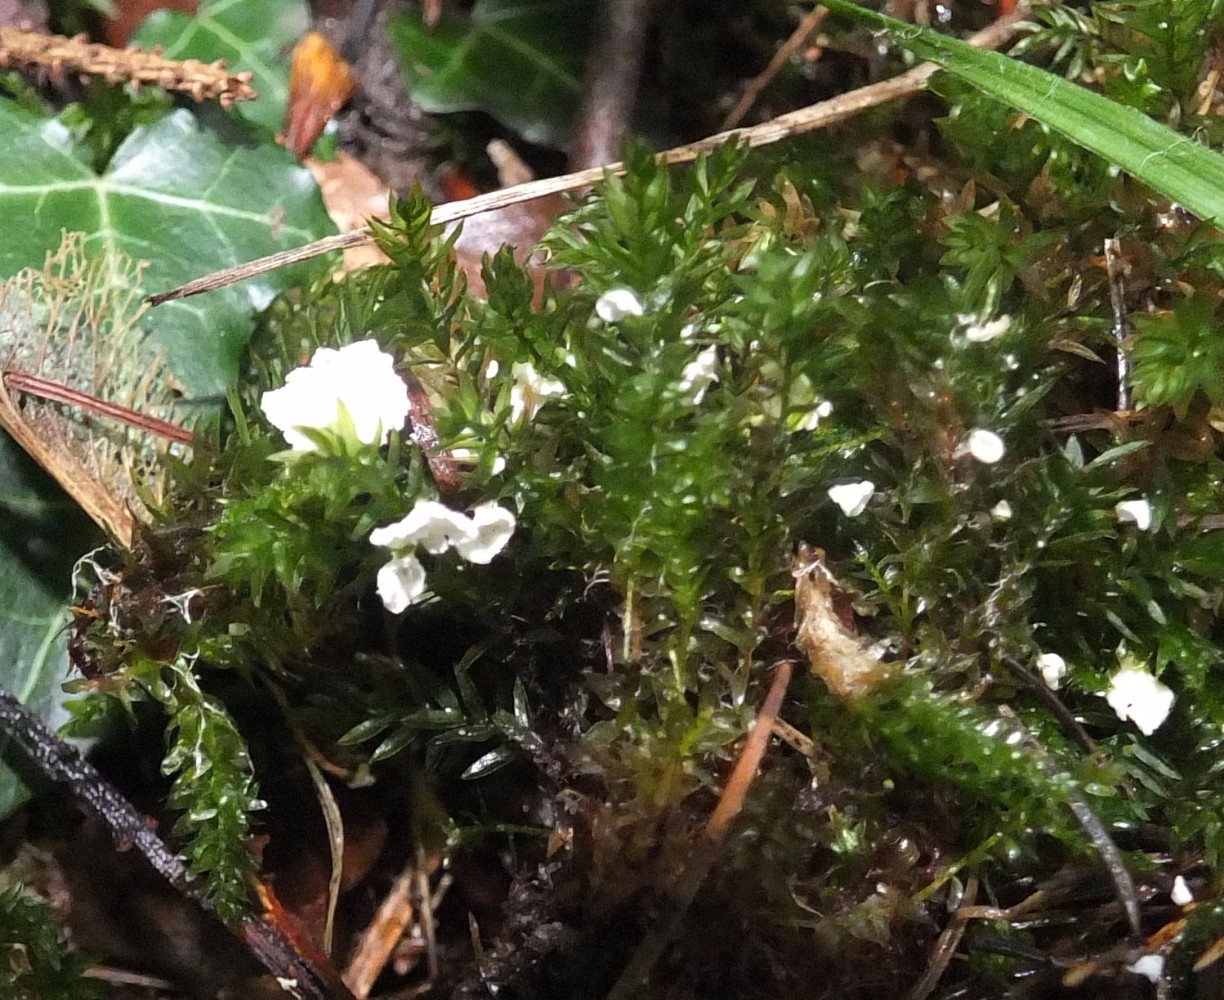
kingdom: Fungi
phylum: Basidiomycota
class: Agaricomycetes
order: Agaricales
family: Tricholomataceae
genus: Rimbachia
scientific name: Rimbachia arachnoidea
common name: Almindelig mosskål
